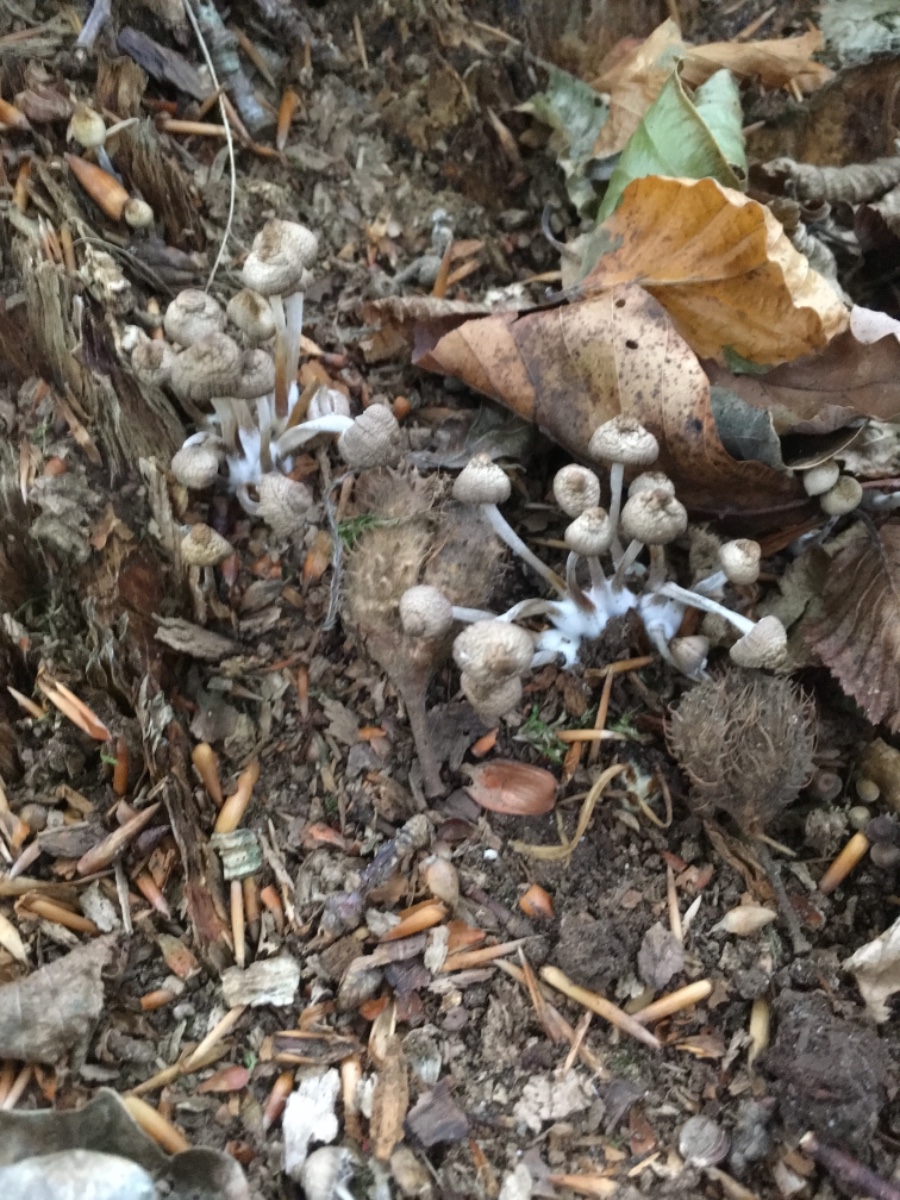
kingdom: Fungi
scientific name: Fungi
